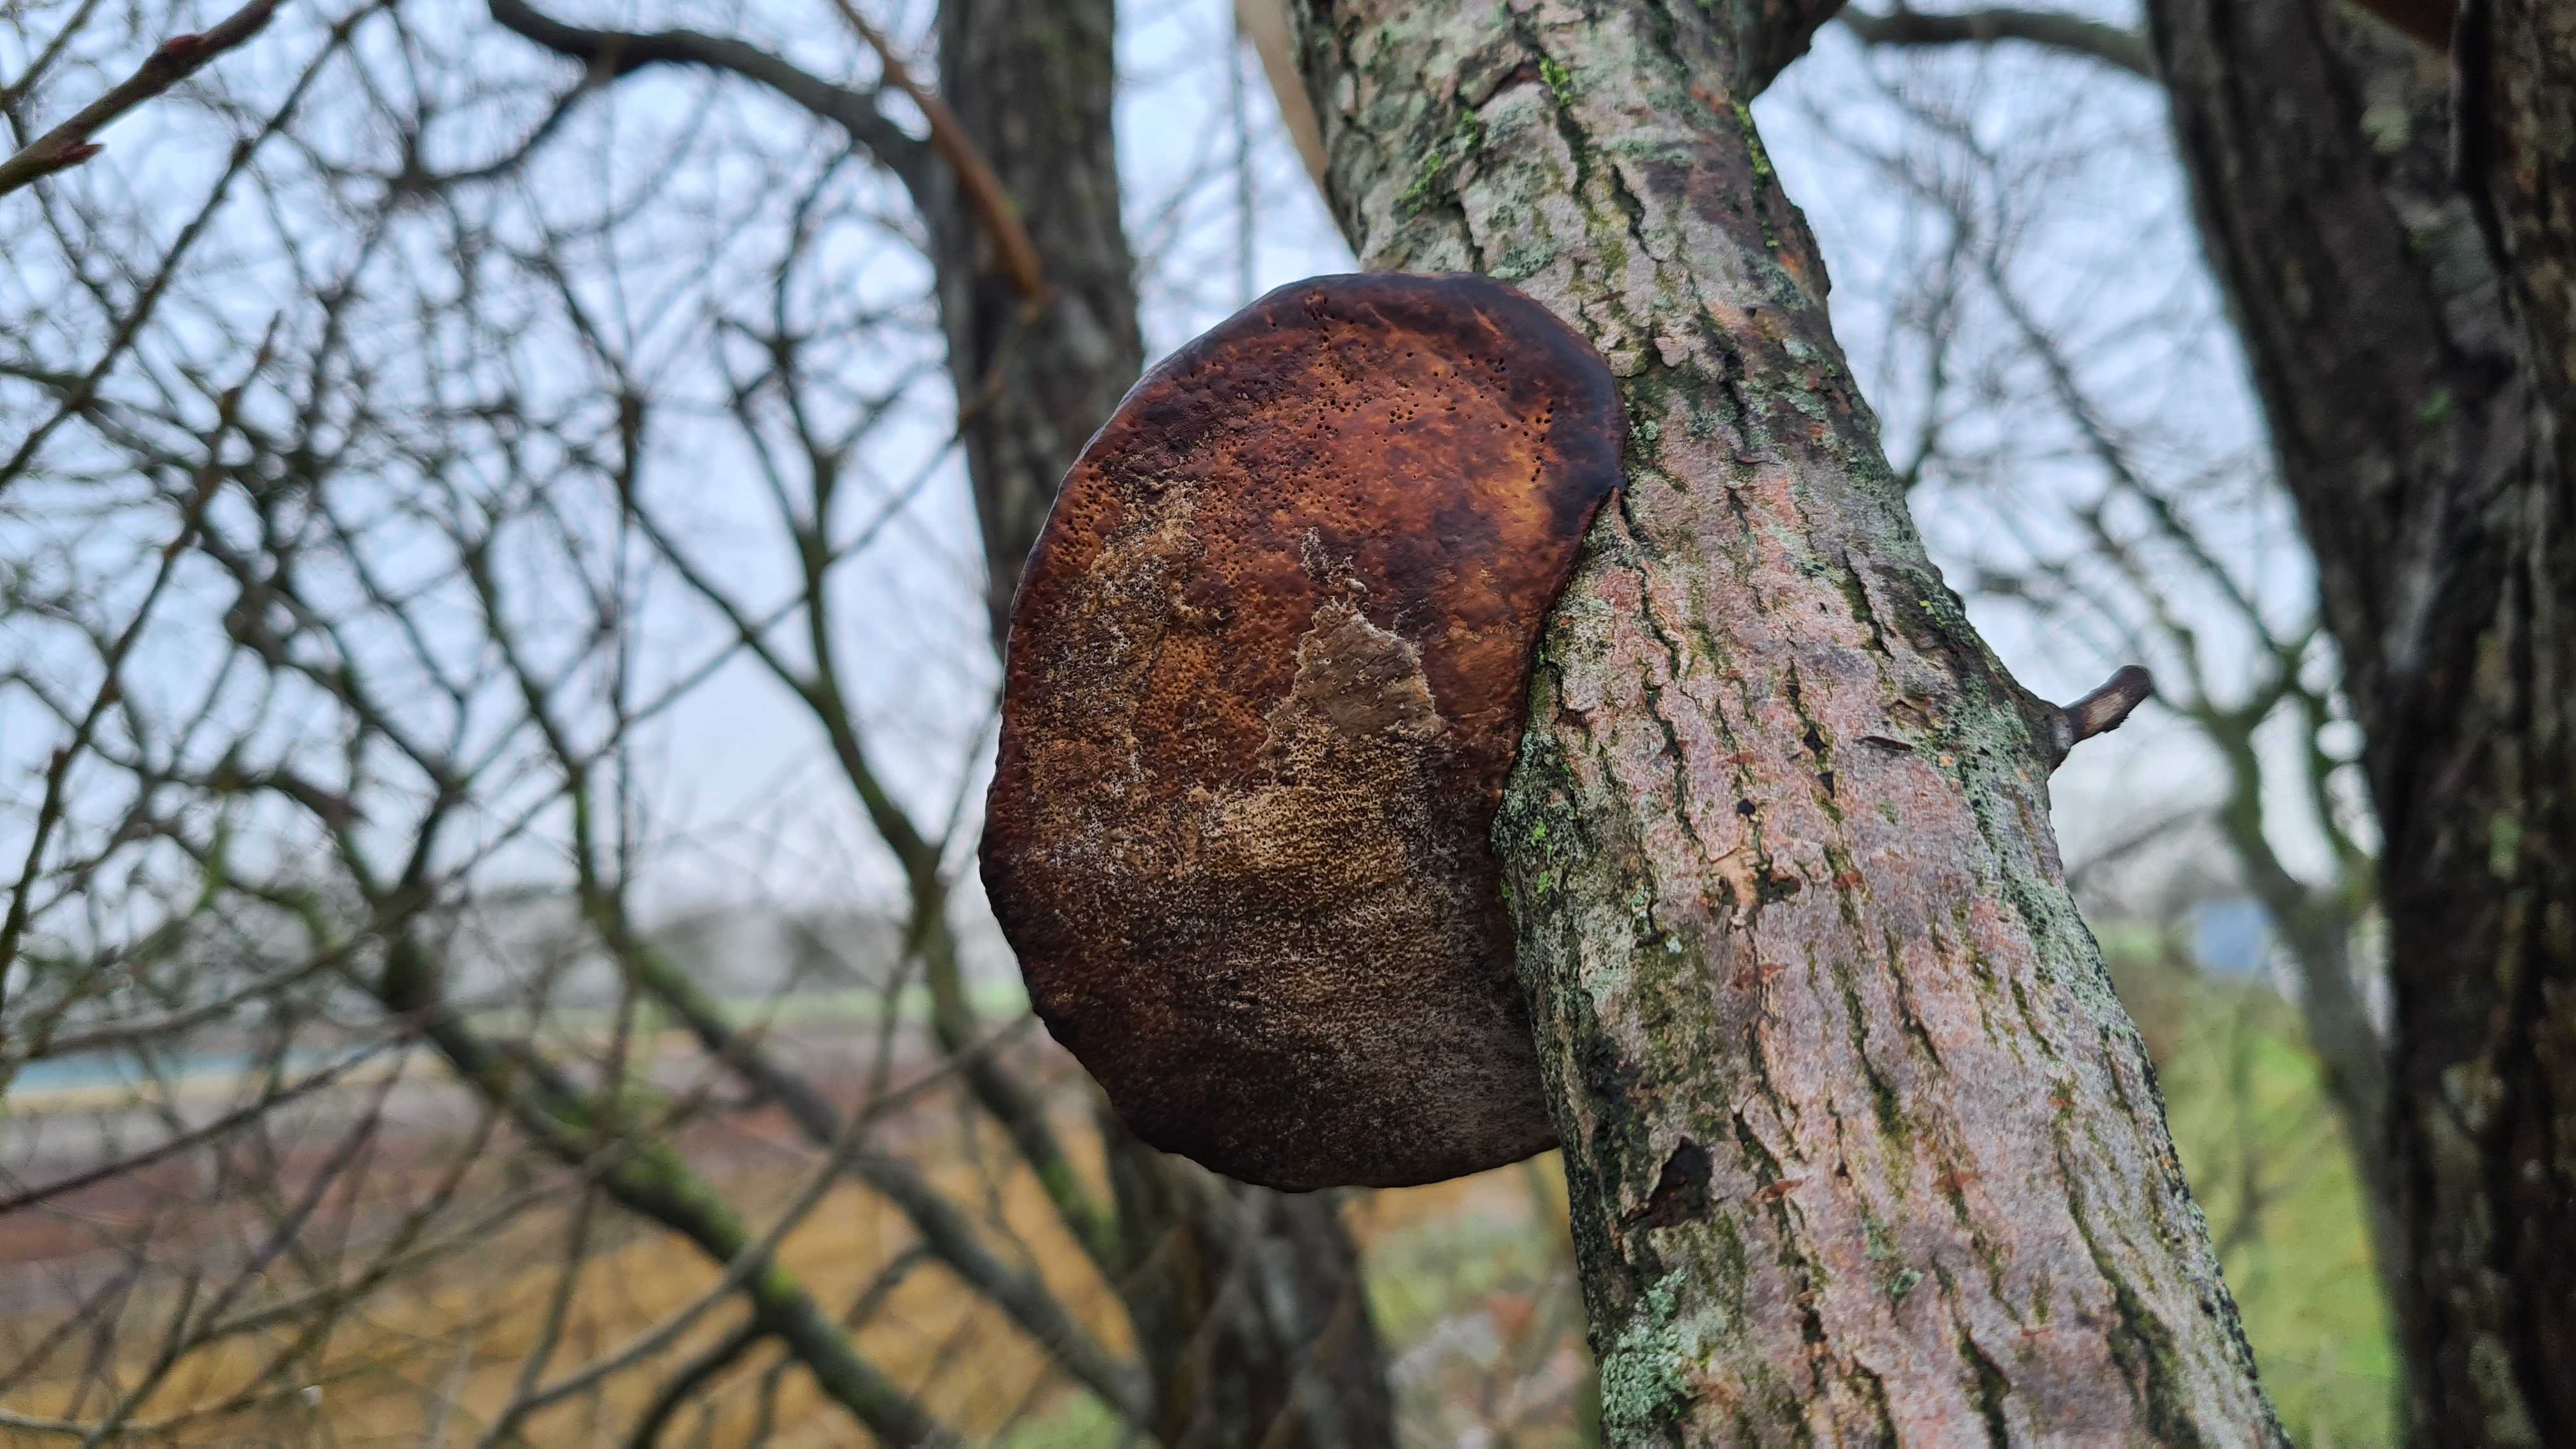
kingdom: Fungi
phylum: Basidiomycota
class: Agaricomycetes
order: Polyporales
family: Polyporaceae
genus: Daedaleopsis
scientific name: Daedaleopsis confragosa
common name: rødmende læderporesvamp
